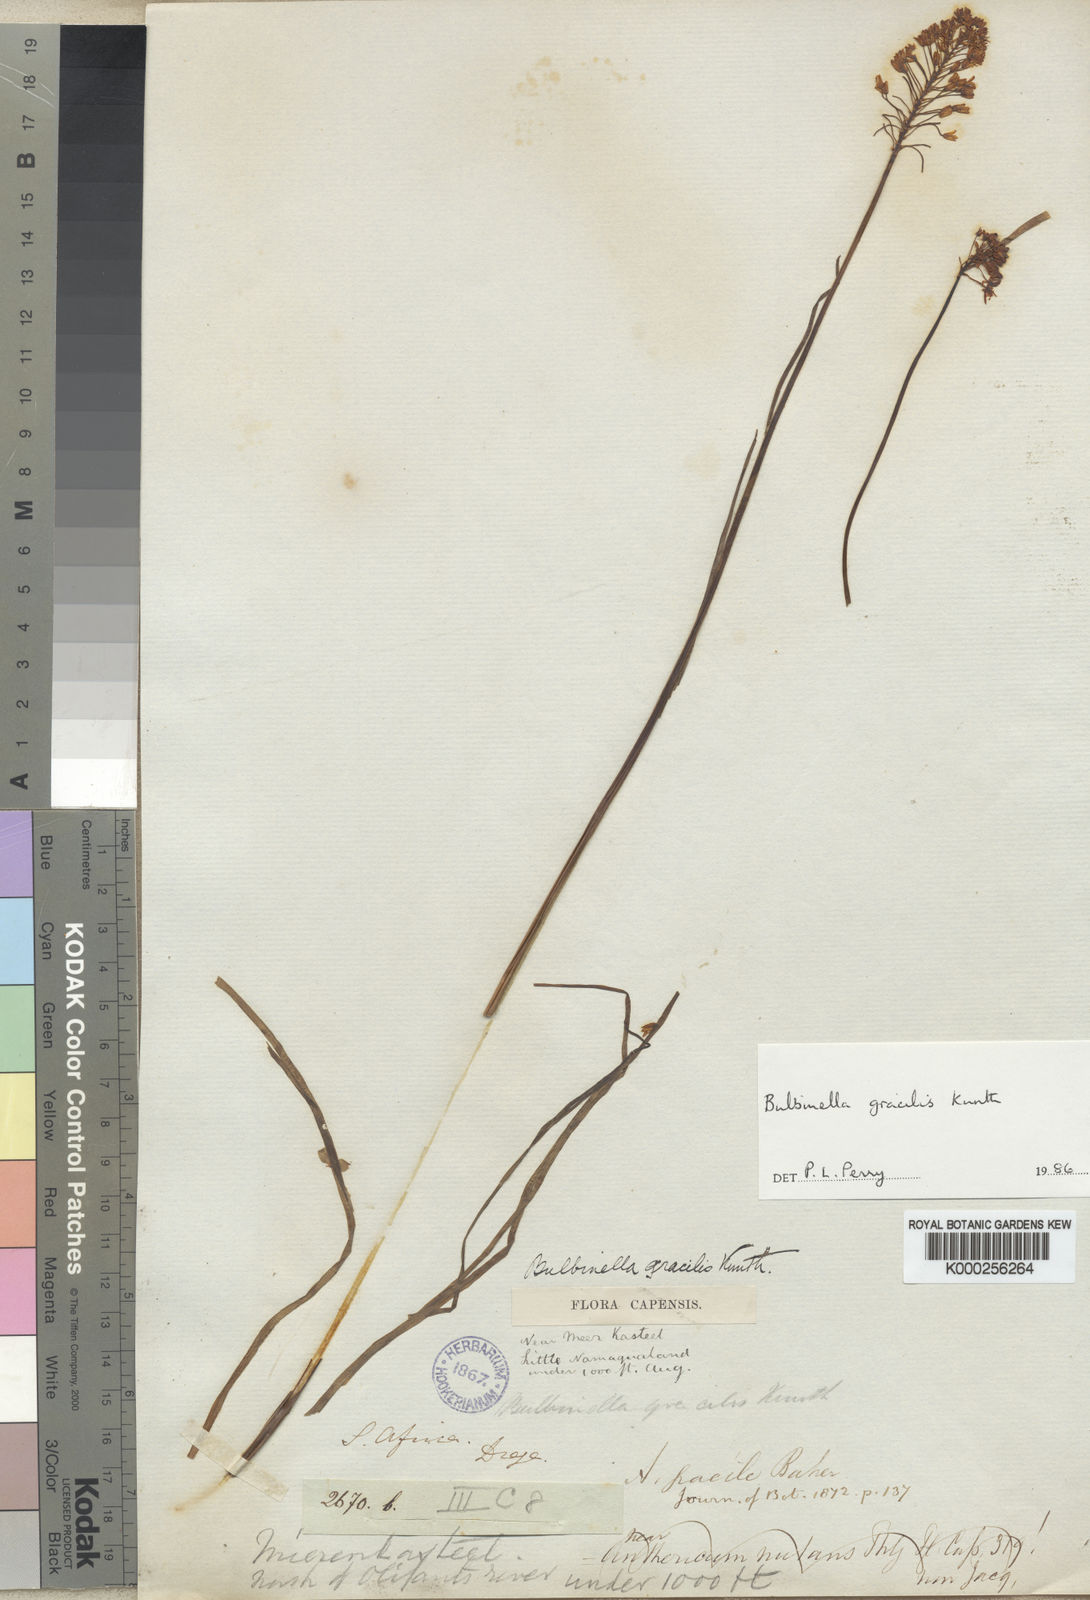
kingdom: Plantae
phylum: Tracheophyta
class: Liliopsida
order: Asparagales
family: Asphodelaceae
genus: Bulbinella
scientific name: Bulbinella gracilis
